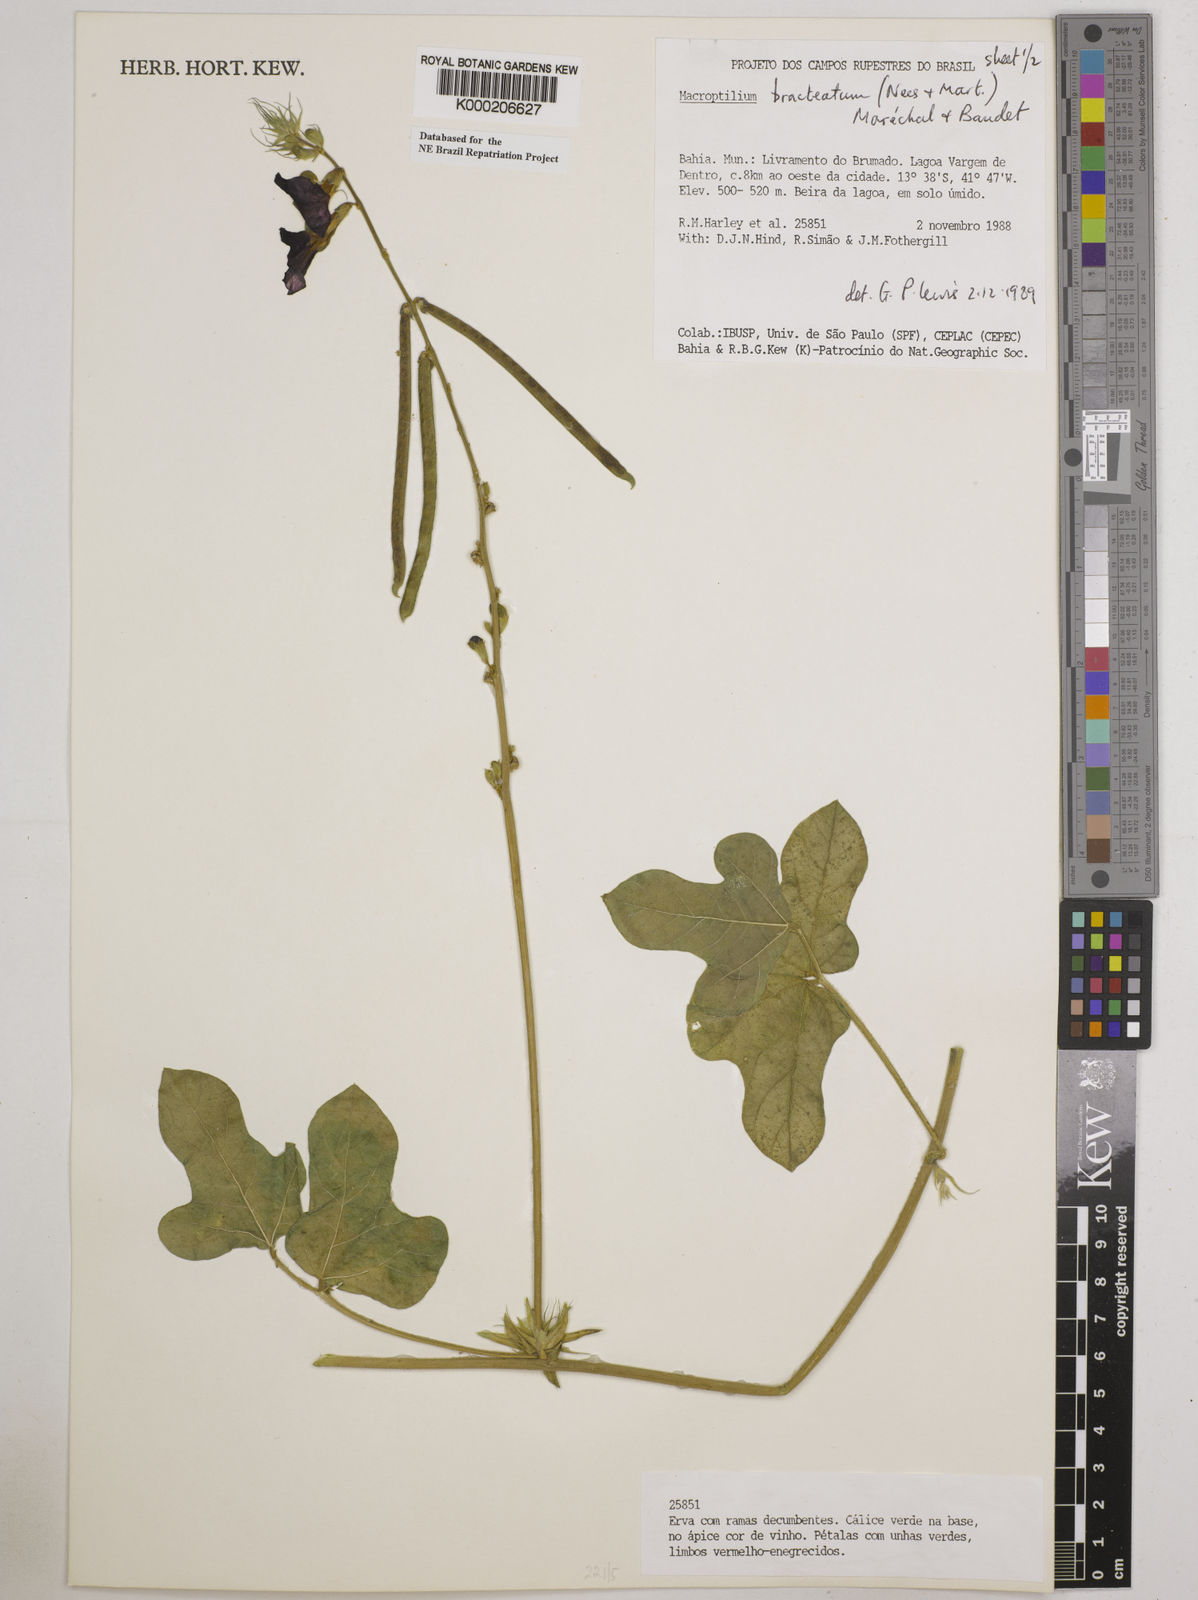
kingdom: Plantae
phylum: Tracheophyta
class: Magnoliopsida
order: Fabales
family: Fabaceae
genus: Macroptilium
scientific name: Macroptilium
